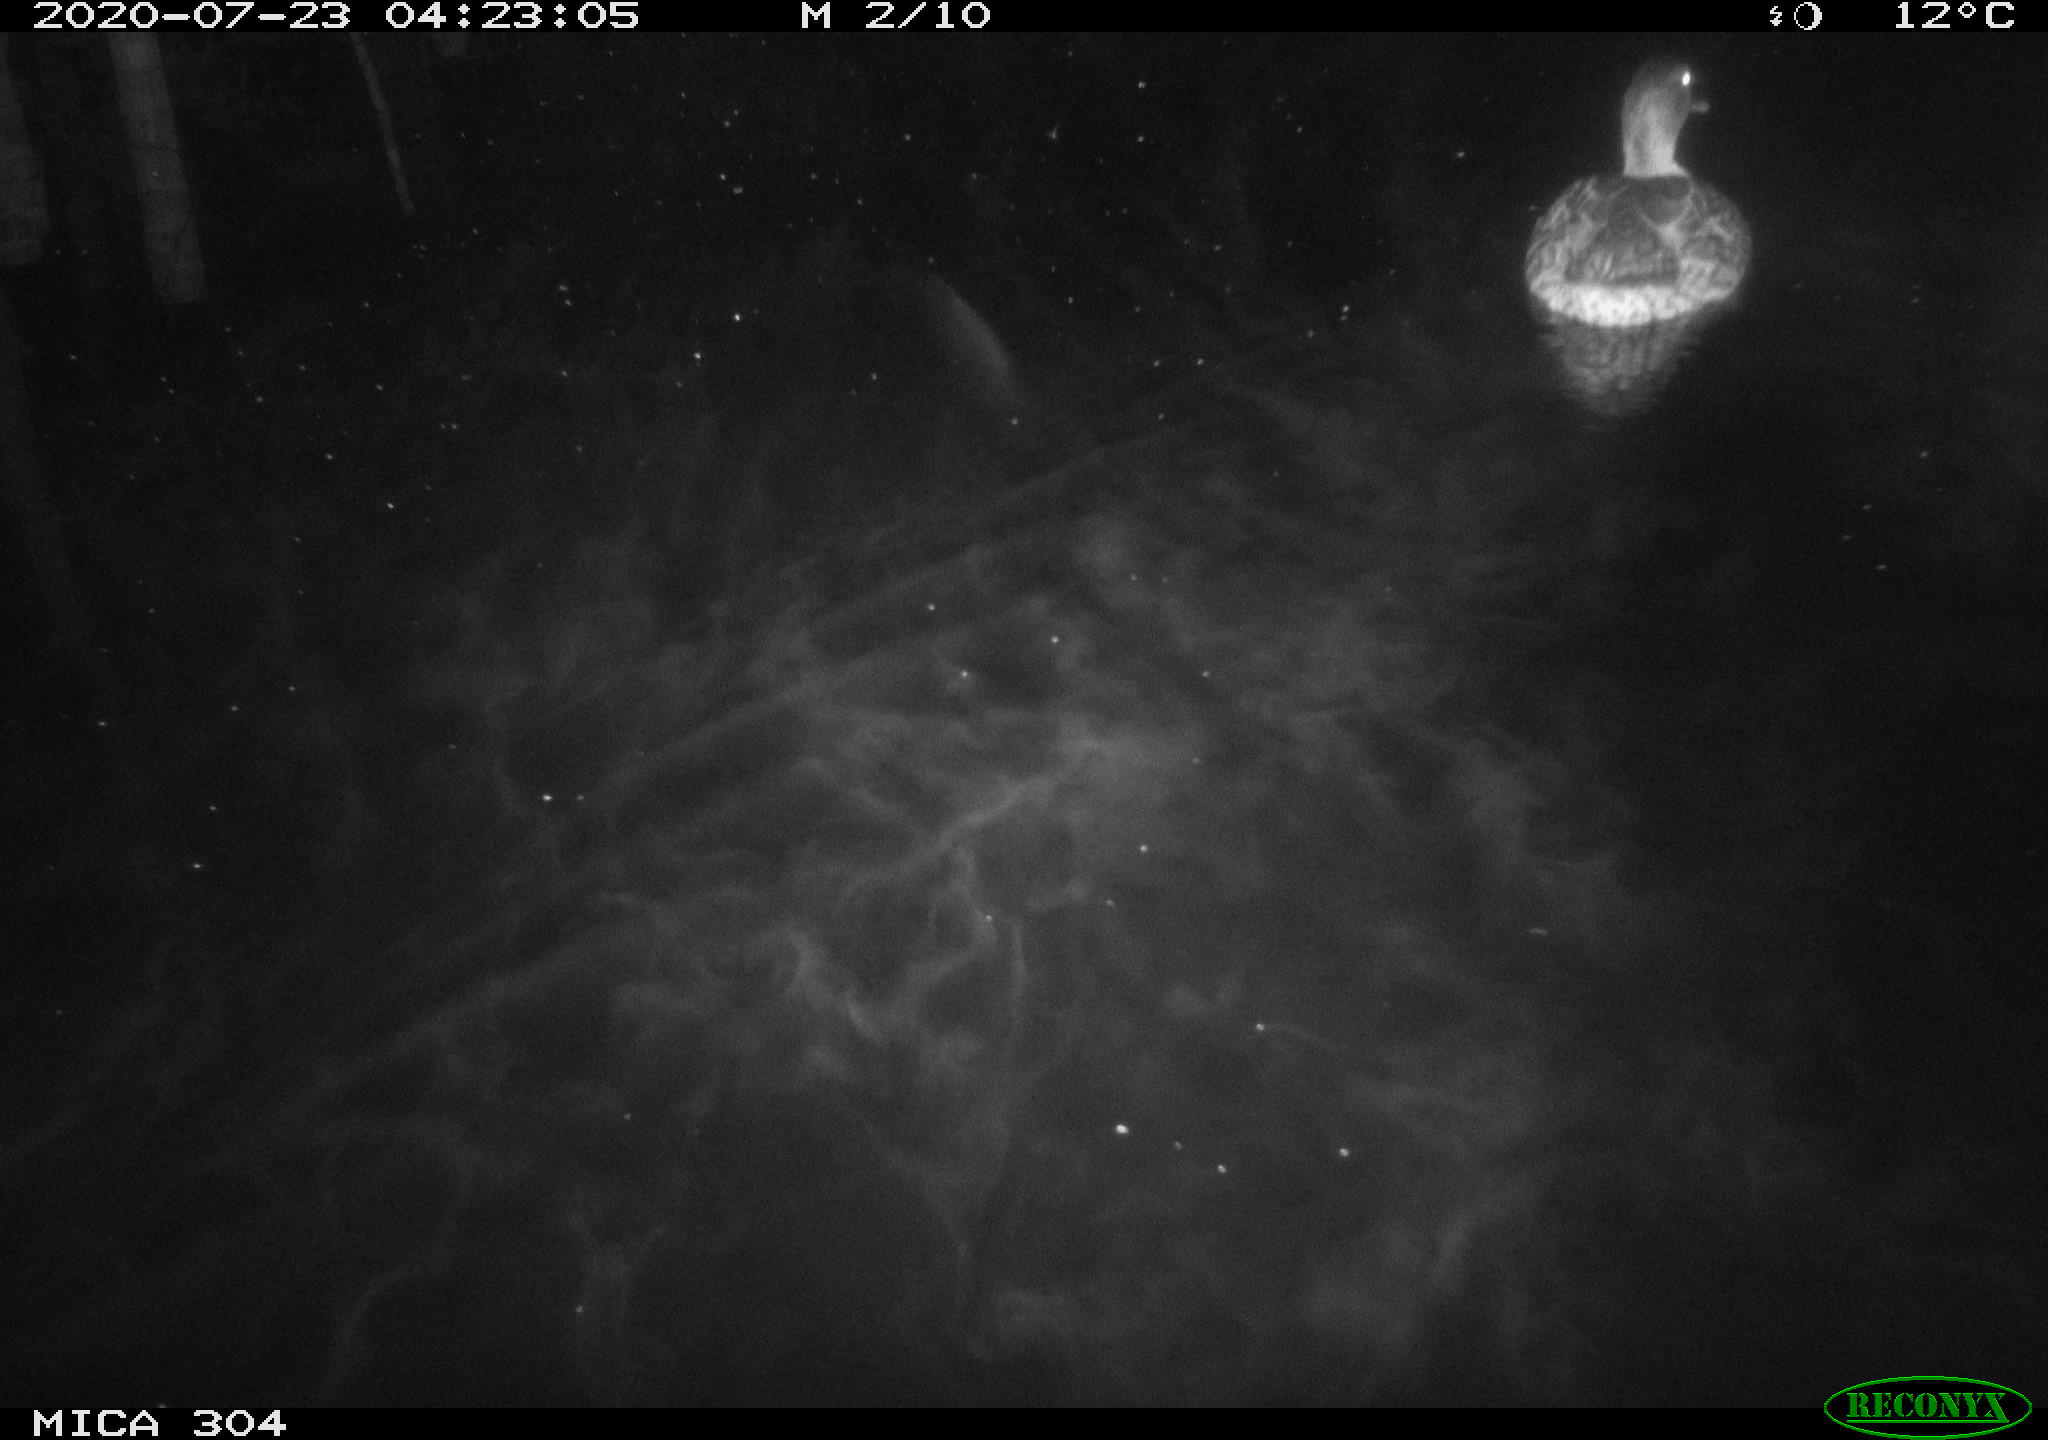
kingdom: Animalia
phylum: Chordata
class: Aves
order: Anseriformes
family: Anatidae
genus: Anas
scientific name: Anas platyrhynchos
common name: Mallard
